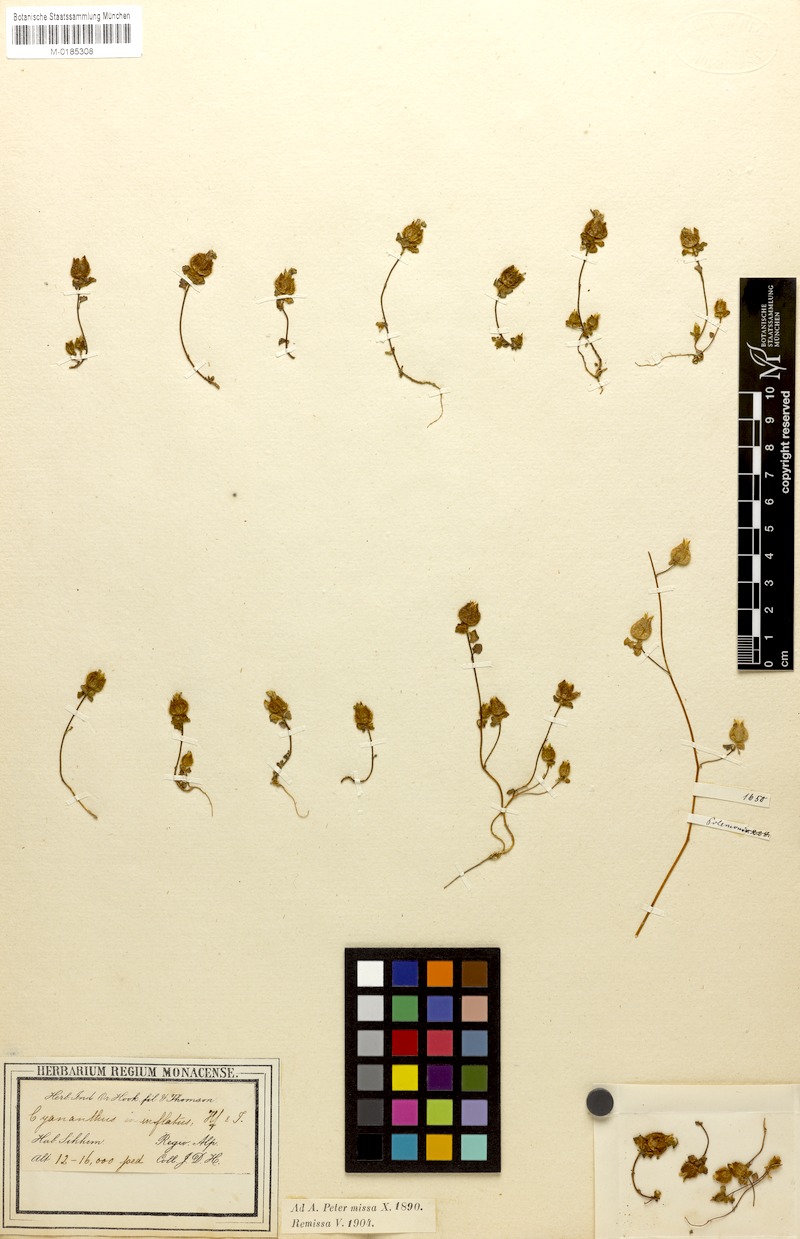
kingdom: Plantae
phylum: Tracheophyta
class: Magnoliopsida
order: Asterales
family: Campanulaceae
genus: Cyananthus
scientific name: Cyananthus inflatus
